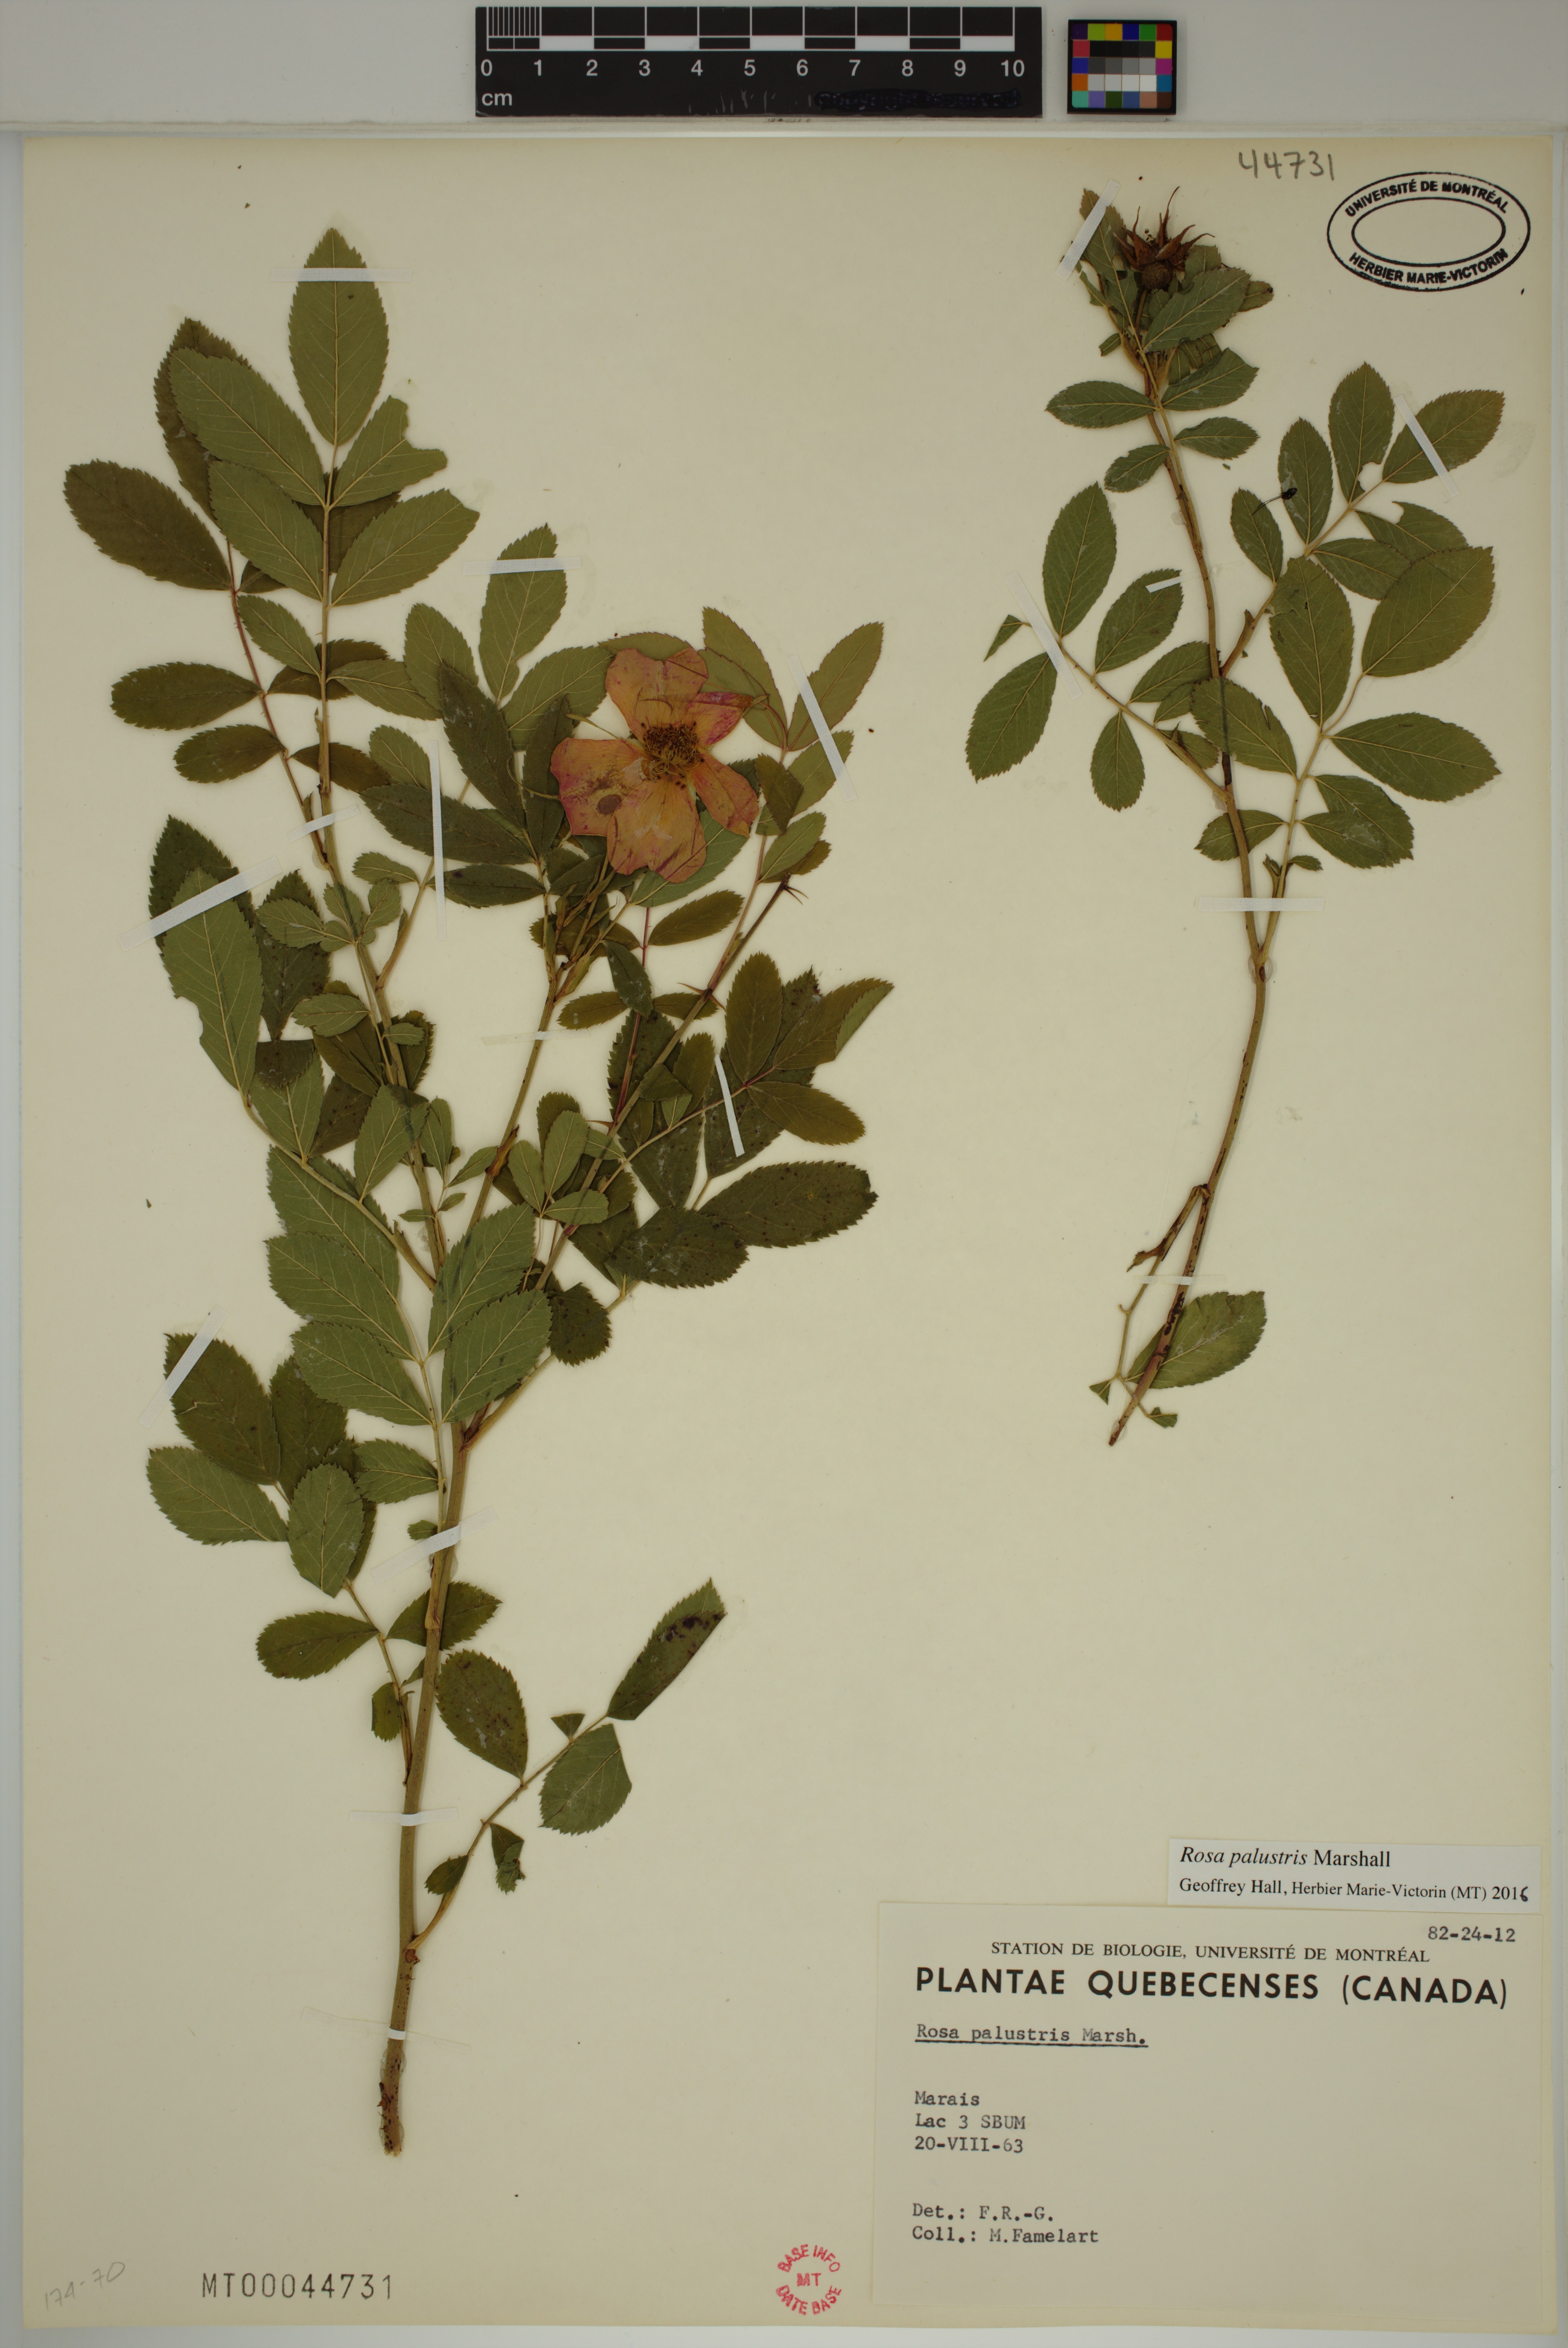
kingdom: Plantae
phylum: Tracheophyta
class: Magnoliopsida
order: Rosales
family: Rosaceae
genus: Rosa
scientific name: Rosa palustris
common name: Swamp rose
